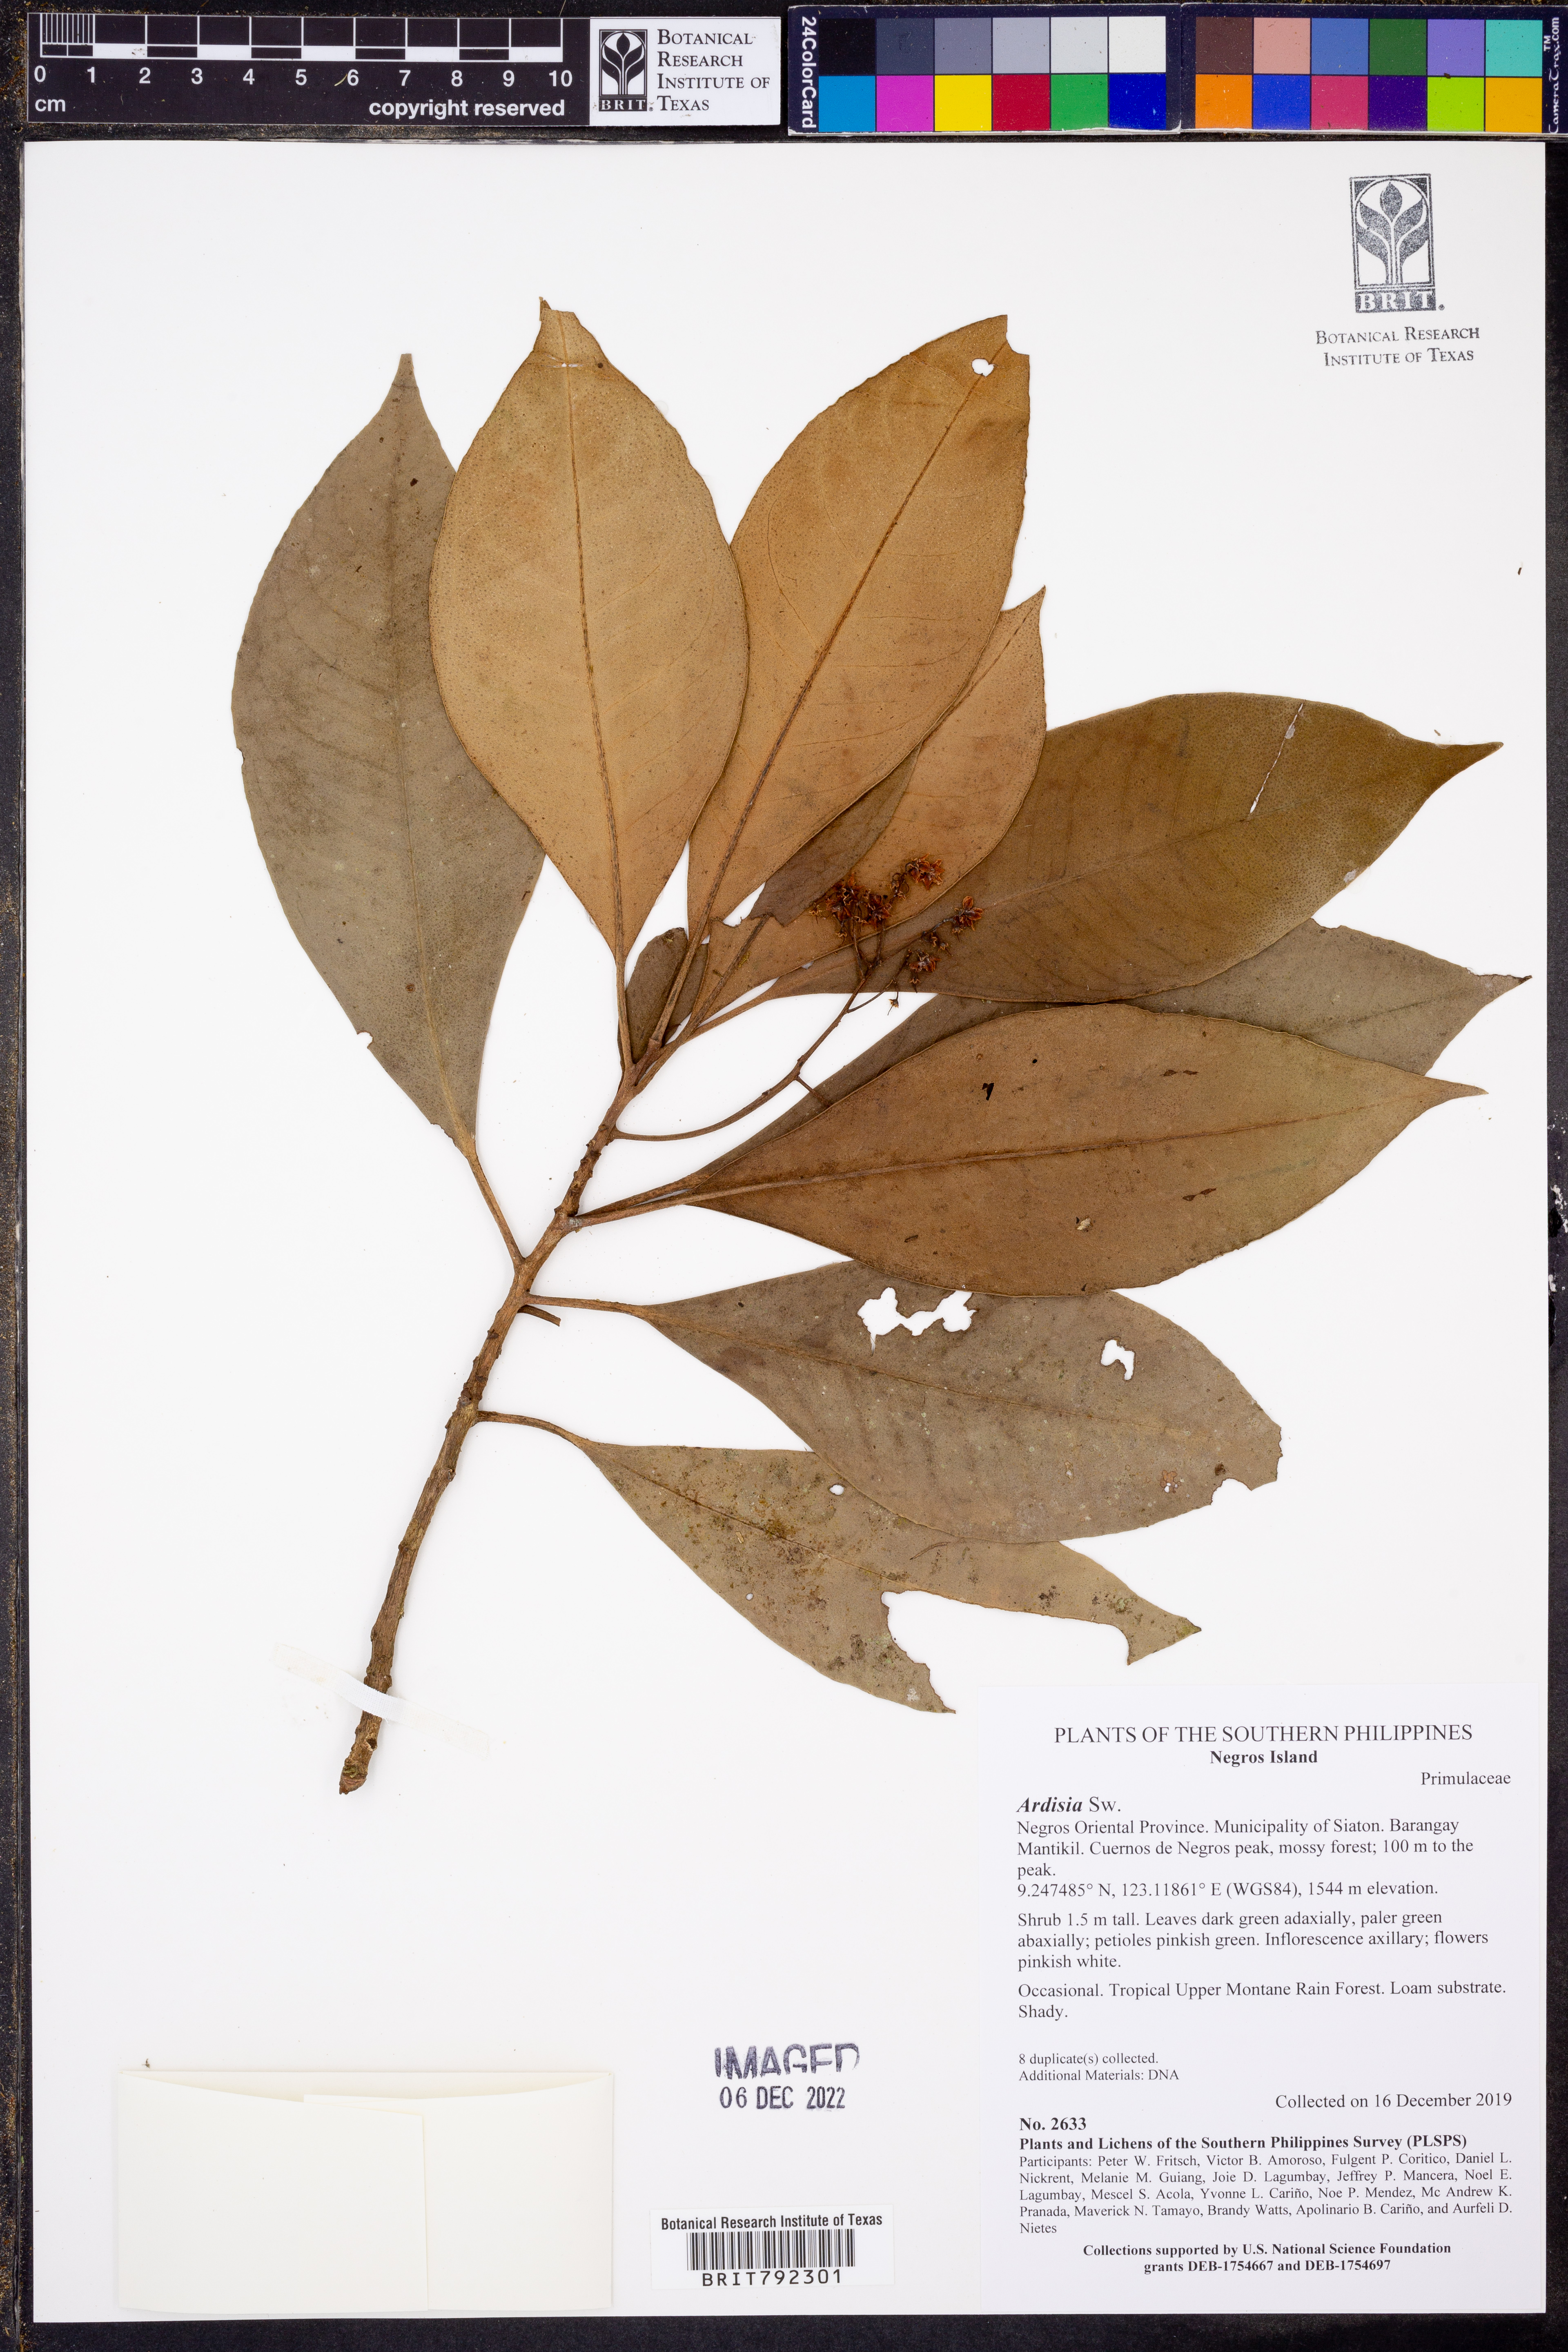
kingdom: Plantae
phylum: Tracheophyta
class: Magnoliopsida
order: Ericales
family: Primulaceae
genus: Ardisia
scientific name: Ardisia
